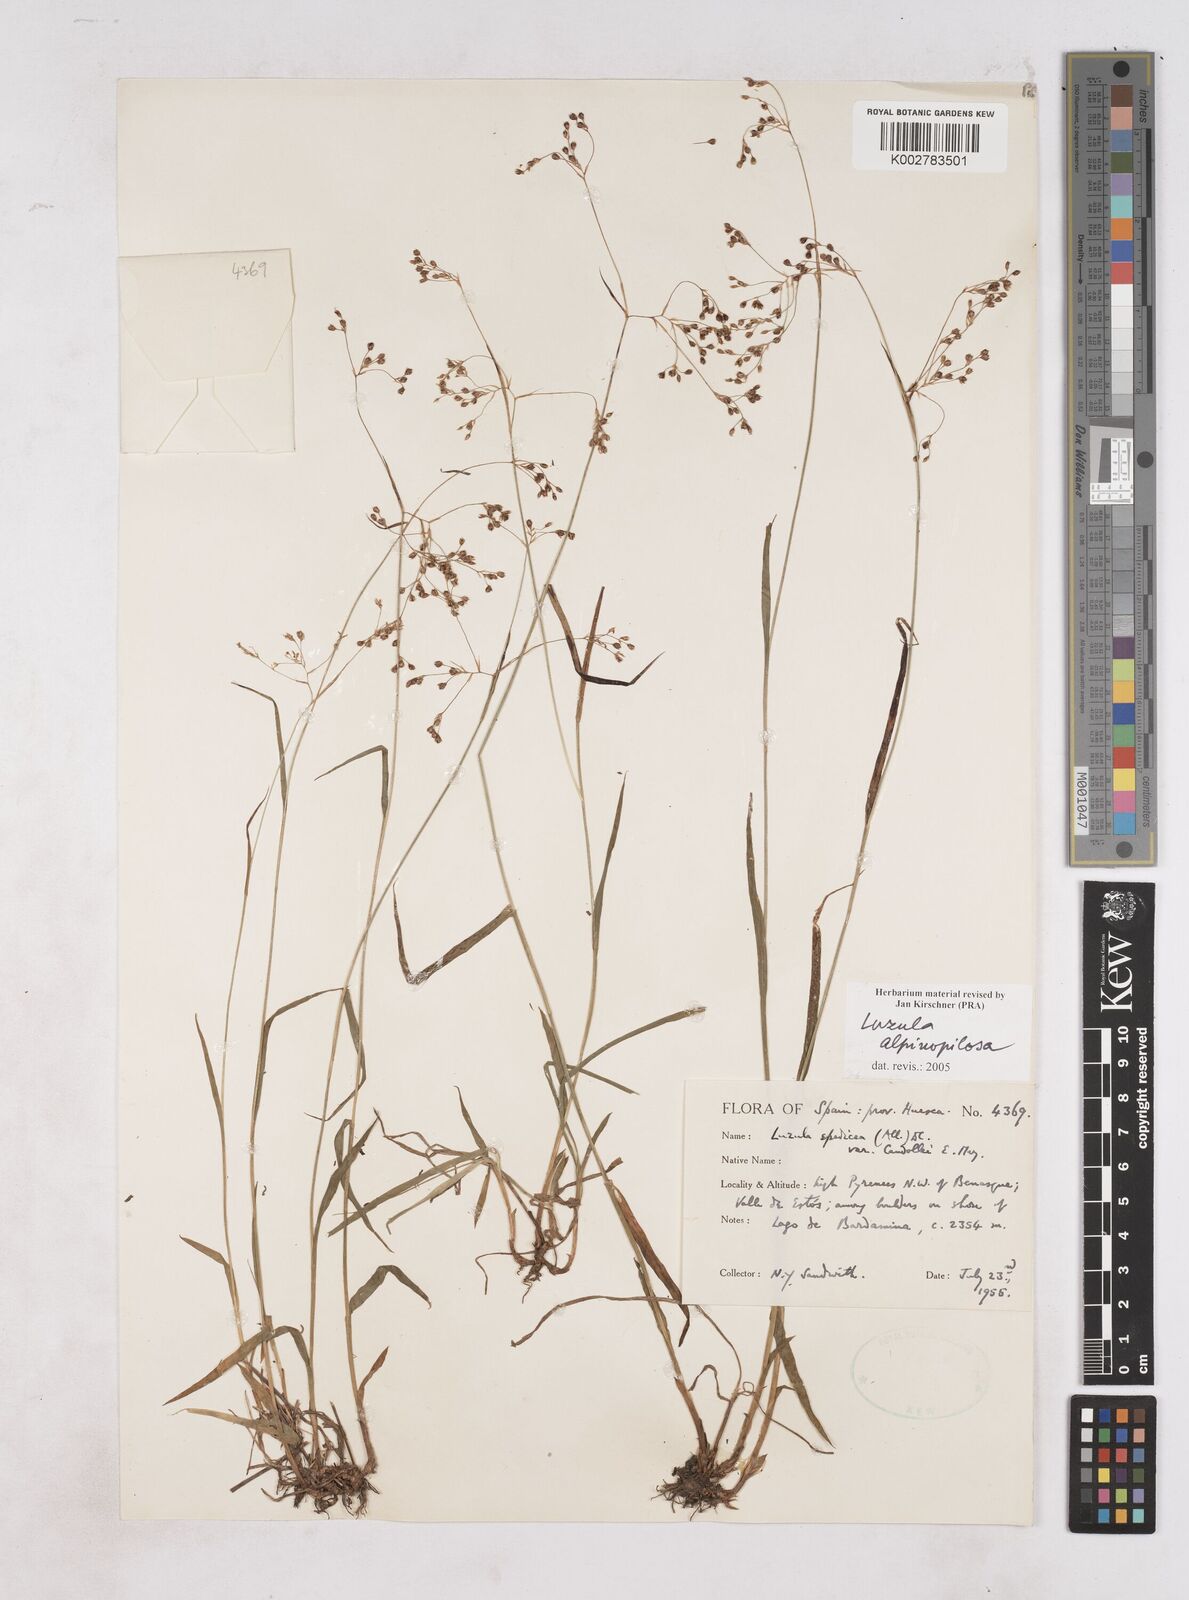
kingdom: Plantae
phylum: Tracheophyta
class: Liliopsida
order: Poales
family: Juncaceae
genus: Luzula
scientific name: Luzula alpinopilosa
